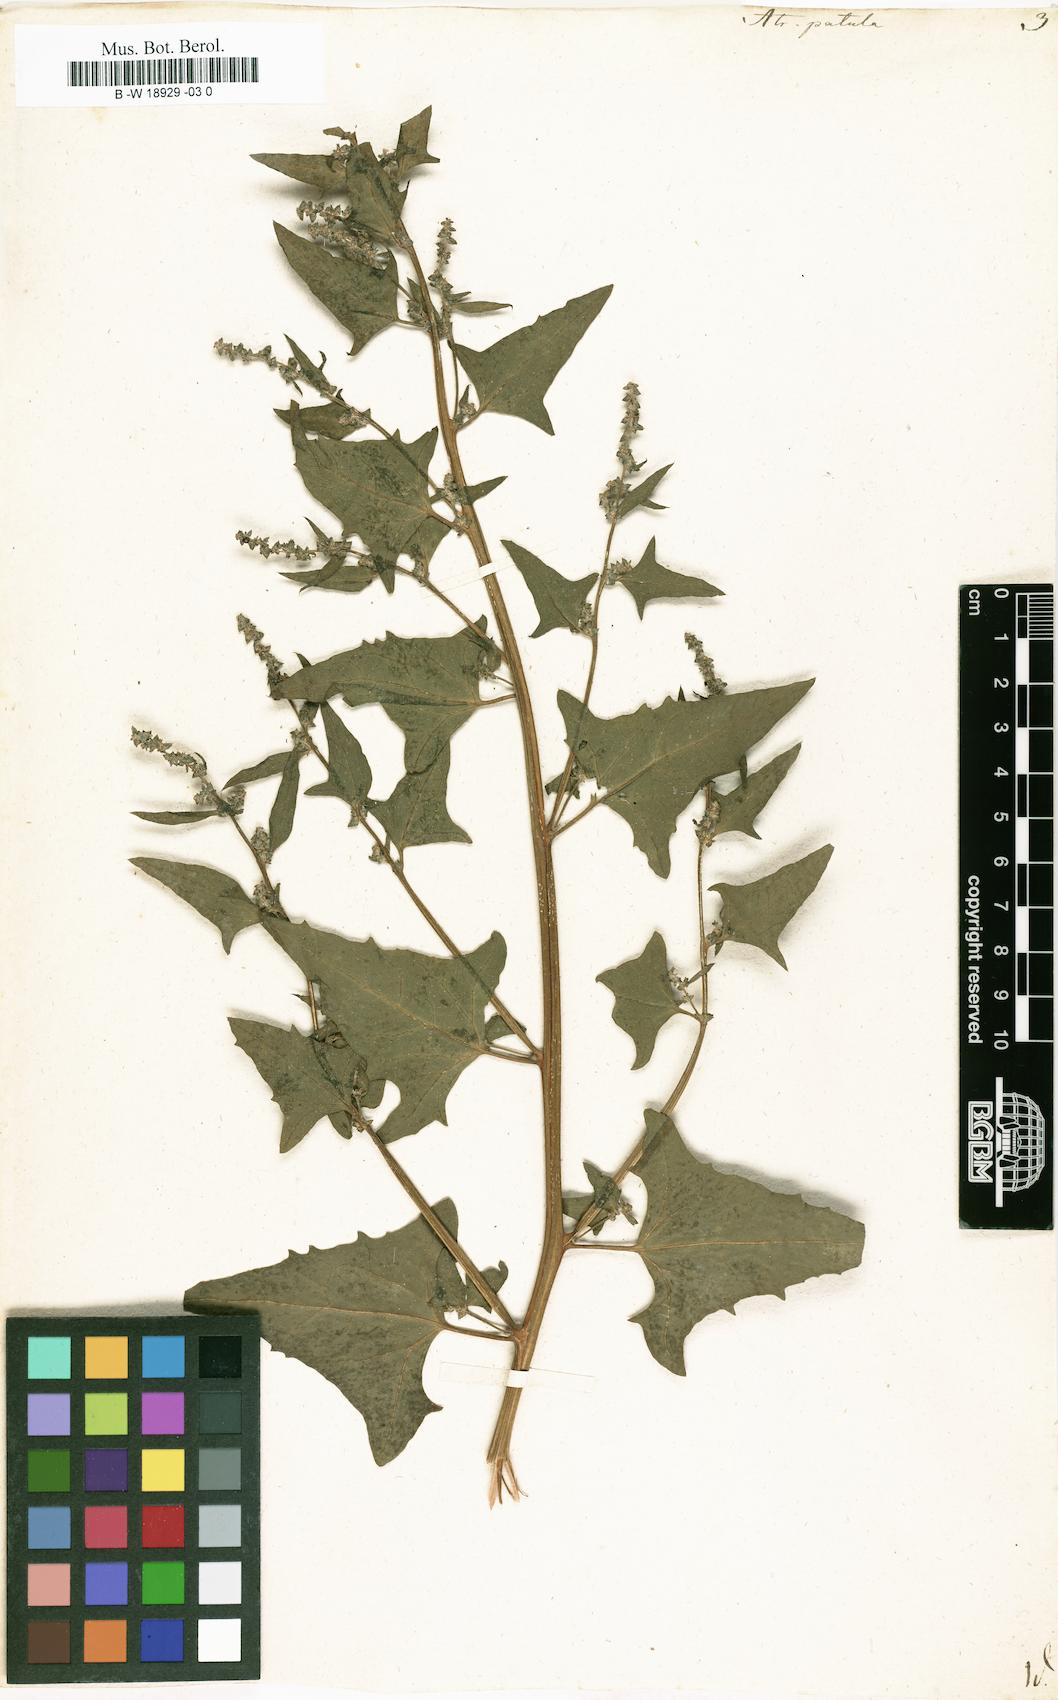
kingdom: Plantae
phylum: Tracheophyta
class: Magnoliopsida
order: Caryophyllales
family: Amaranthaceae
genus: Atriplex
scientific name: Atriplex patula
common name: Common orache
